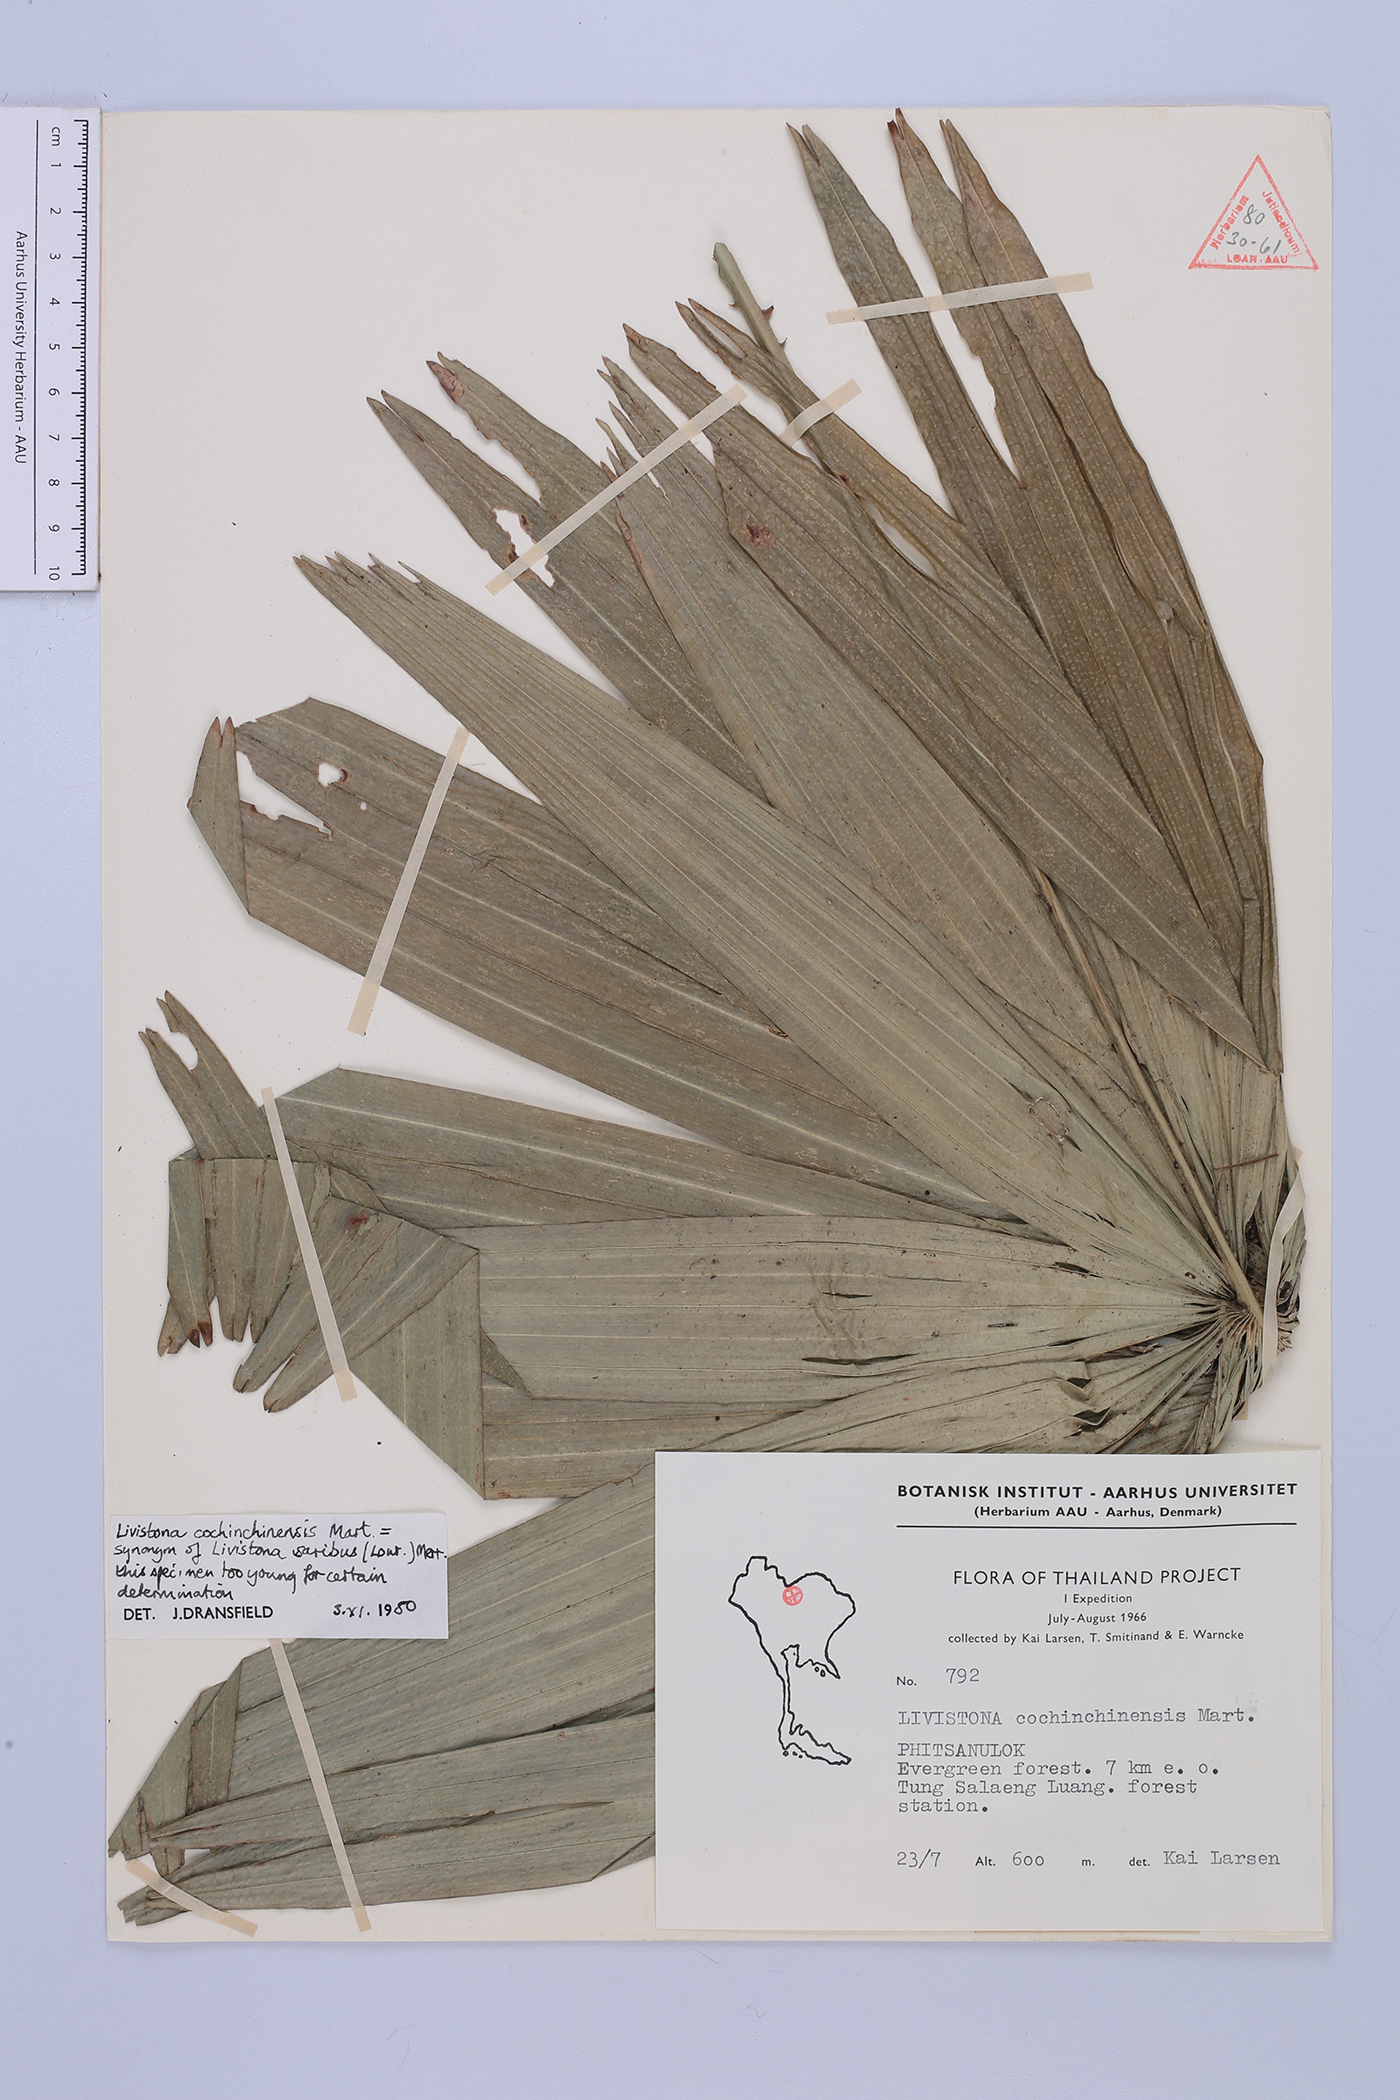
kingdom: Plantae
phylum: Tracheophyta
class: Liliopsida
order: Arecales
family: Arecaceae
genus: Livistona
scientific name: Livistona saribus
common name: Taraw palm
